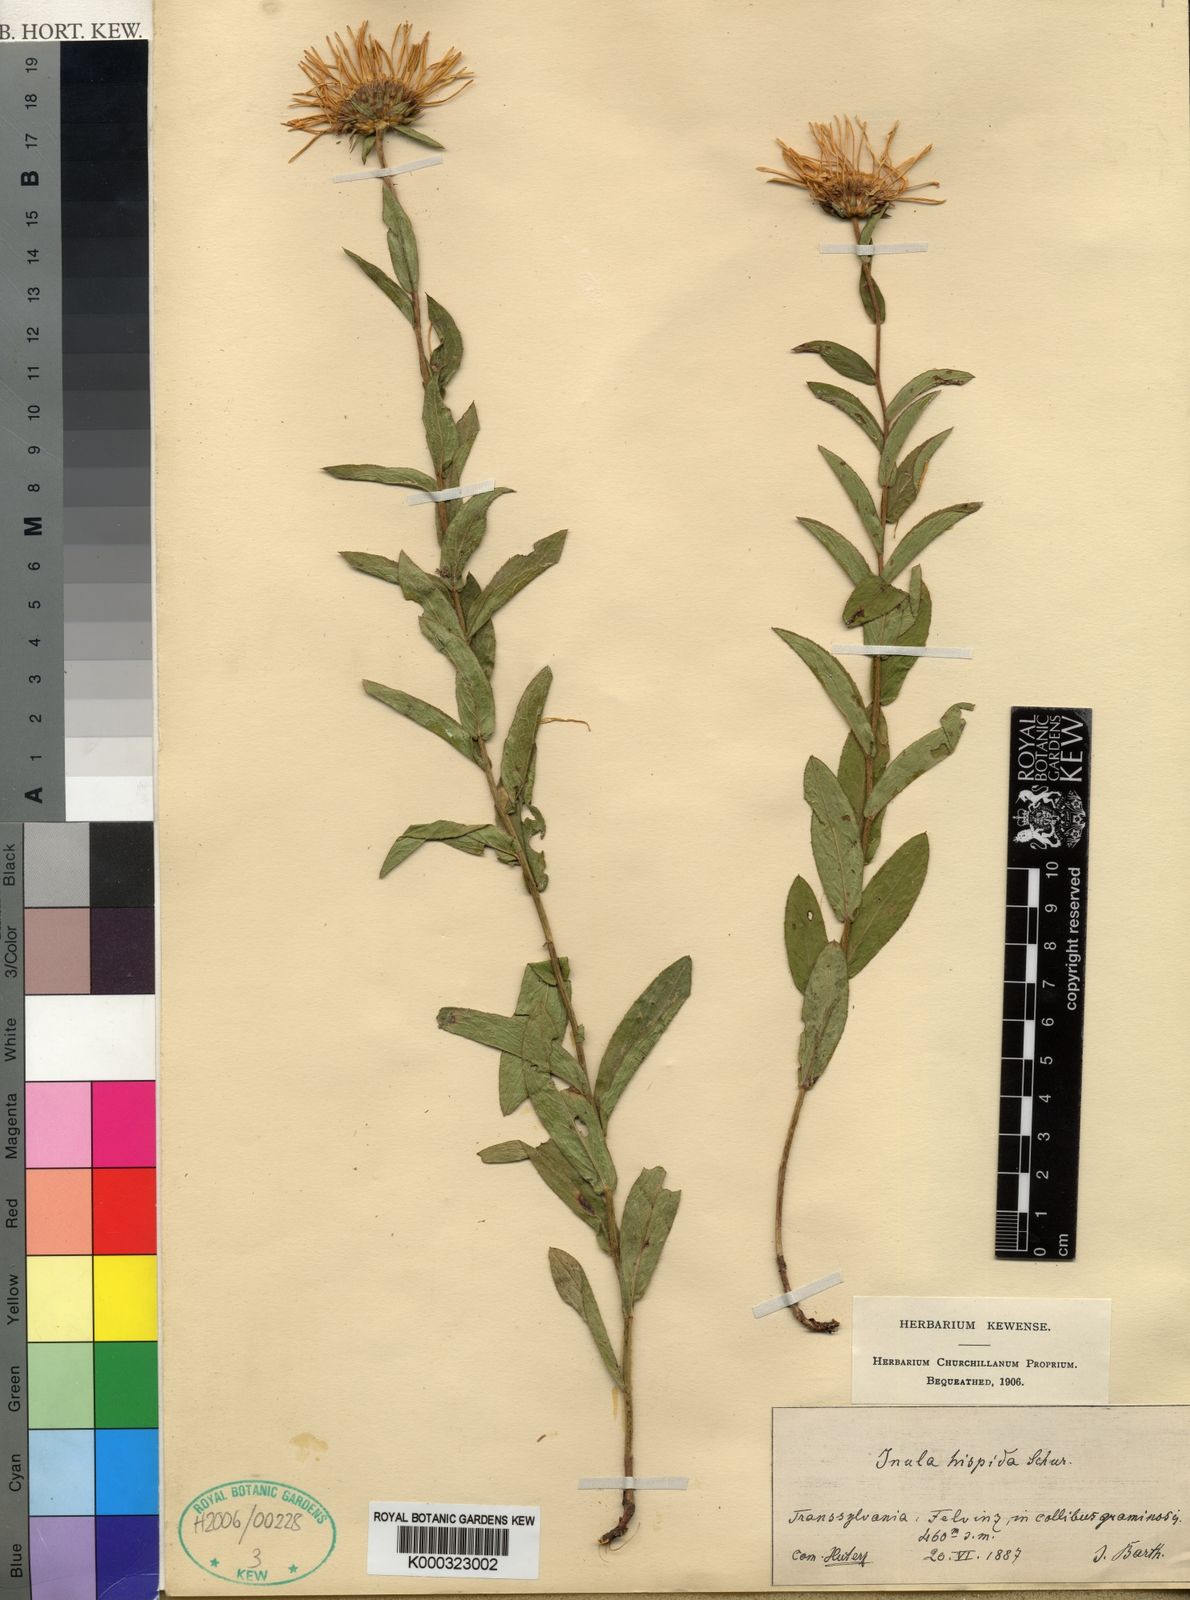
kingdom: Plantae
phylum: Tracheophyta
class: Magnoliopsida
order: Asterales
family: Asteraceae
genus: Pentanema
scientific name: Pentanema spiraeifolium
